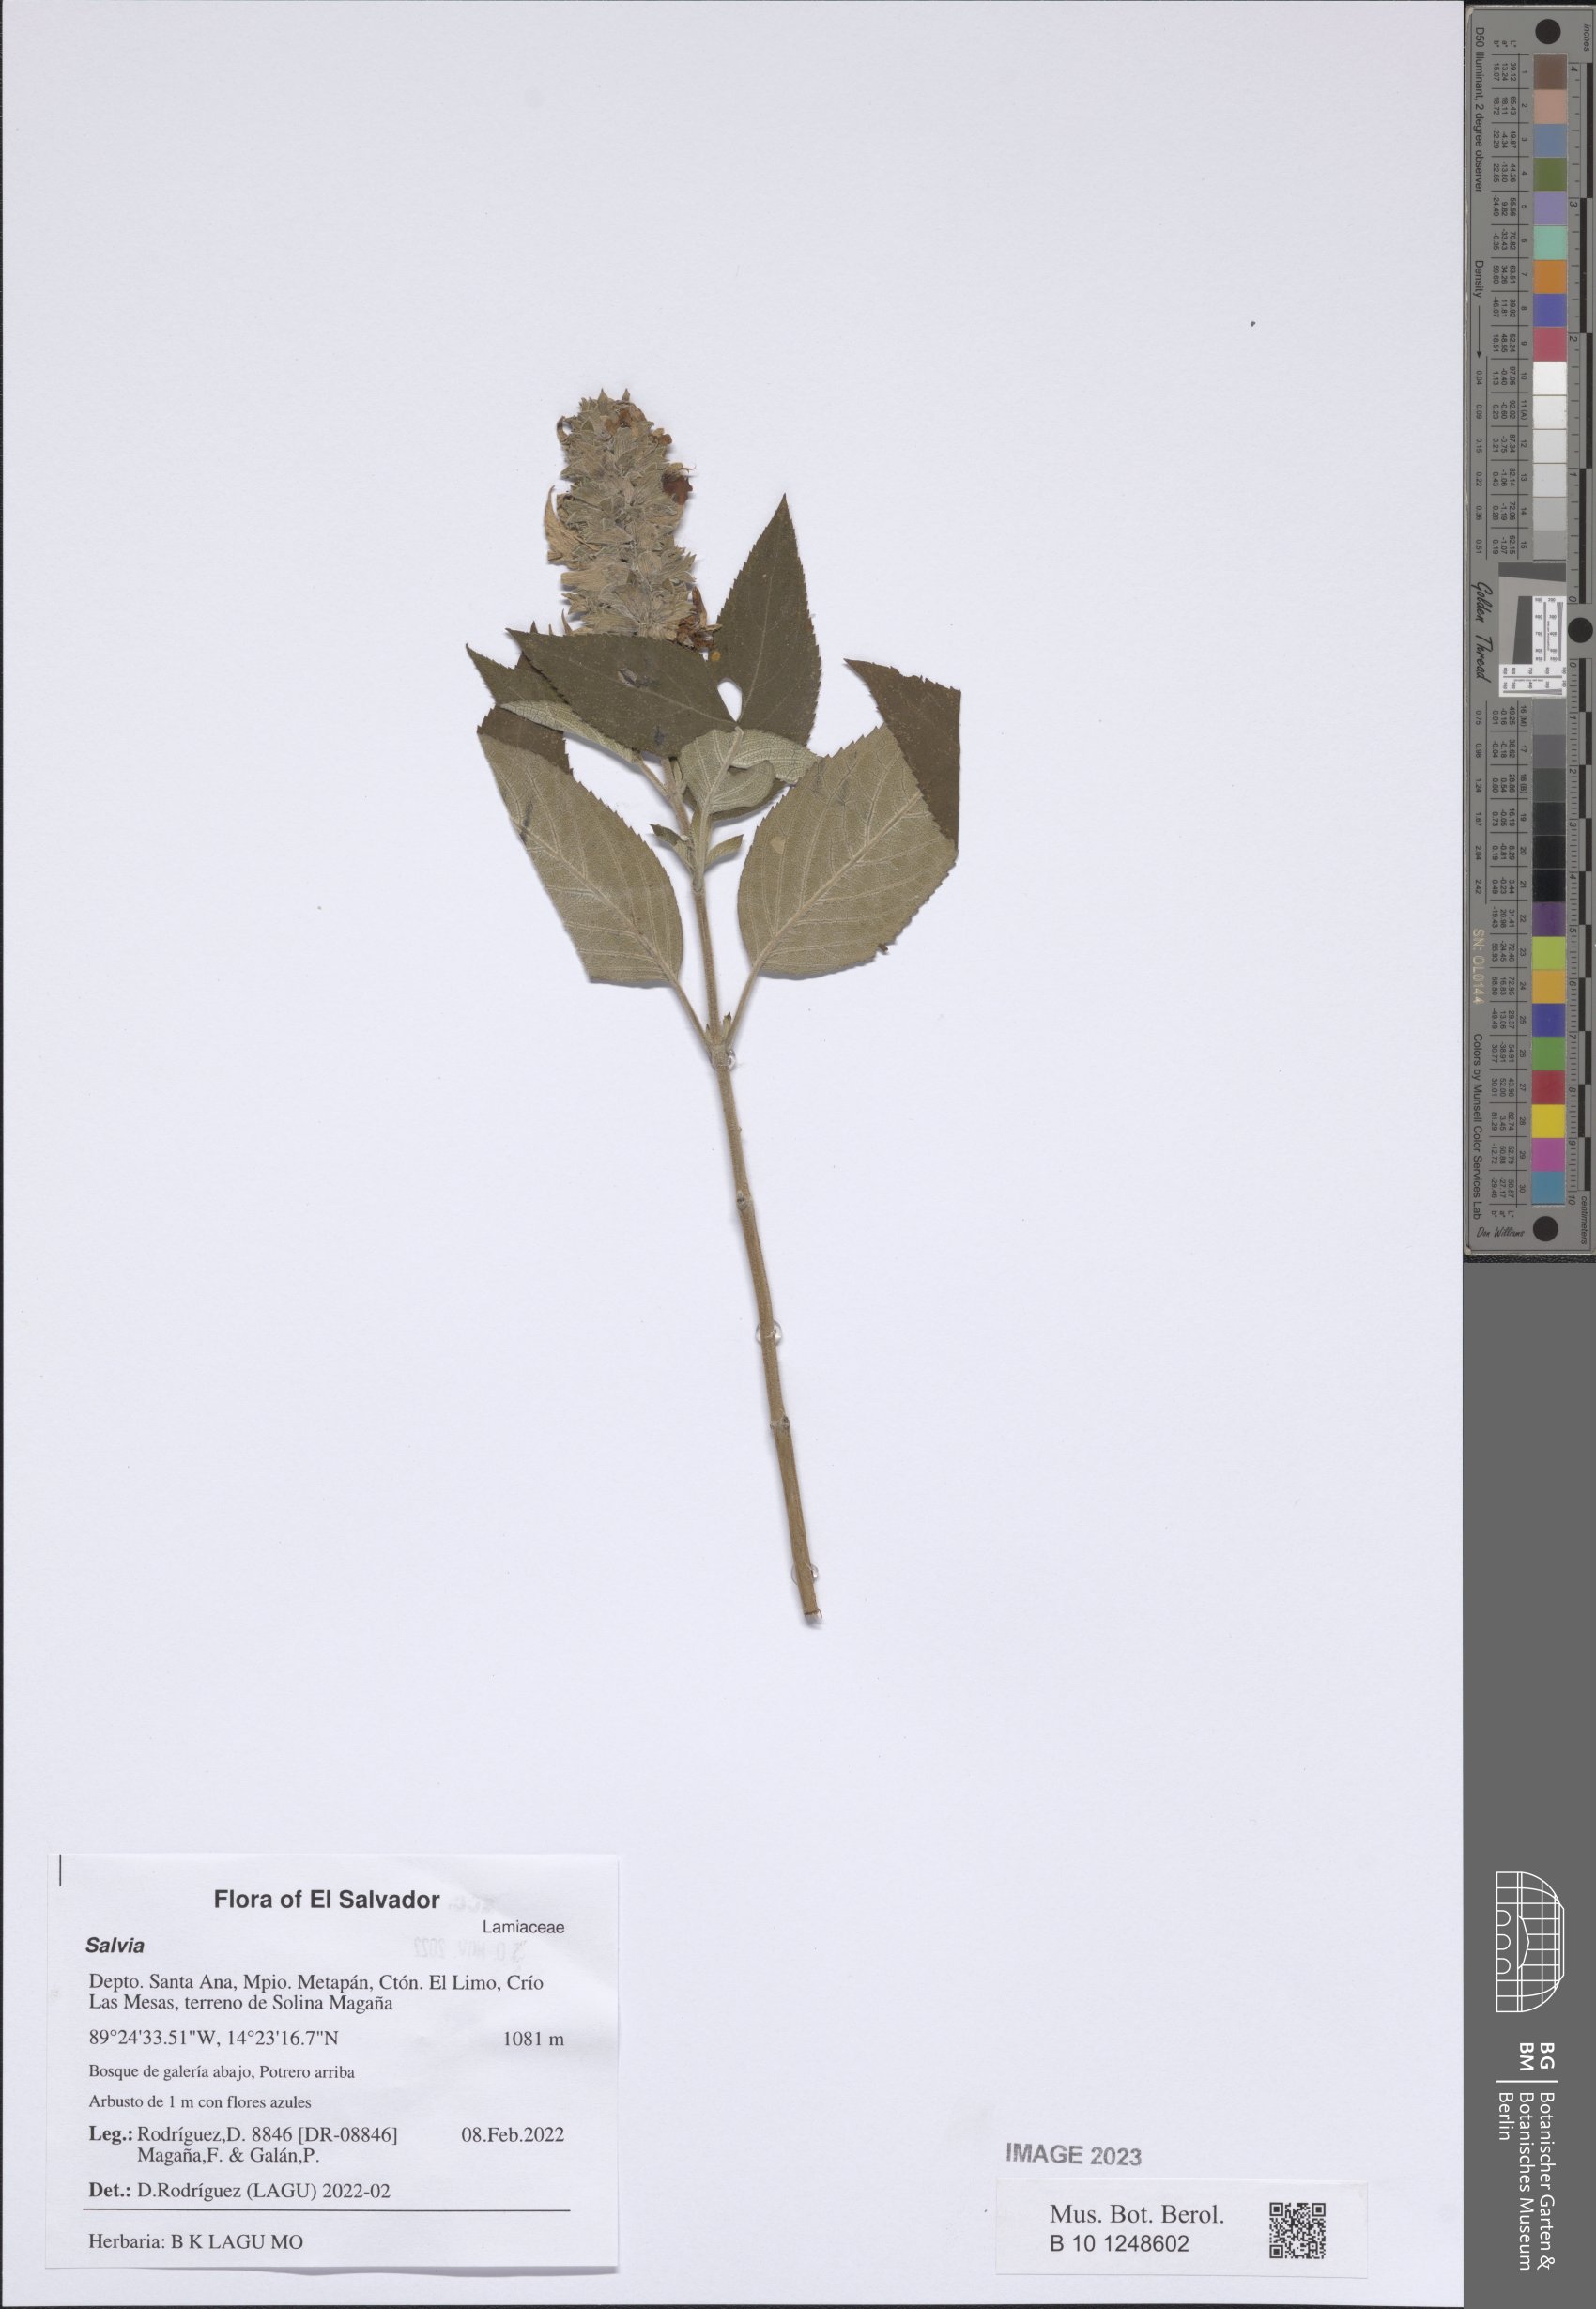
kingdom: Plantae
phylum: Tracheophyta
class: Magnoliopsida
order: Lamiales
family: Lamiaceae
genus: Salvia
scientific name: Salvia
